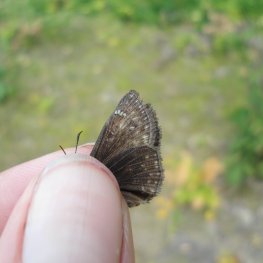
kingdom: Animalia
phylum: Arthropoda
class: Insecta
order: Lepidoptera
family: Hesperiidae
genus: Gesta
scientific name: Gesta
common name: Columbine Duskywing
